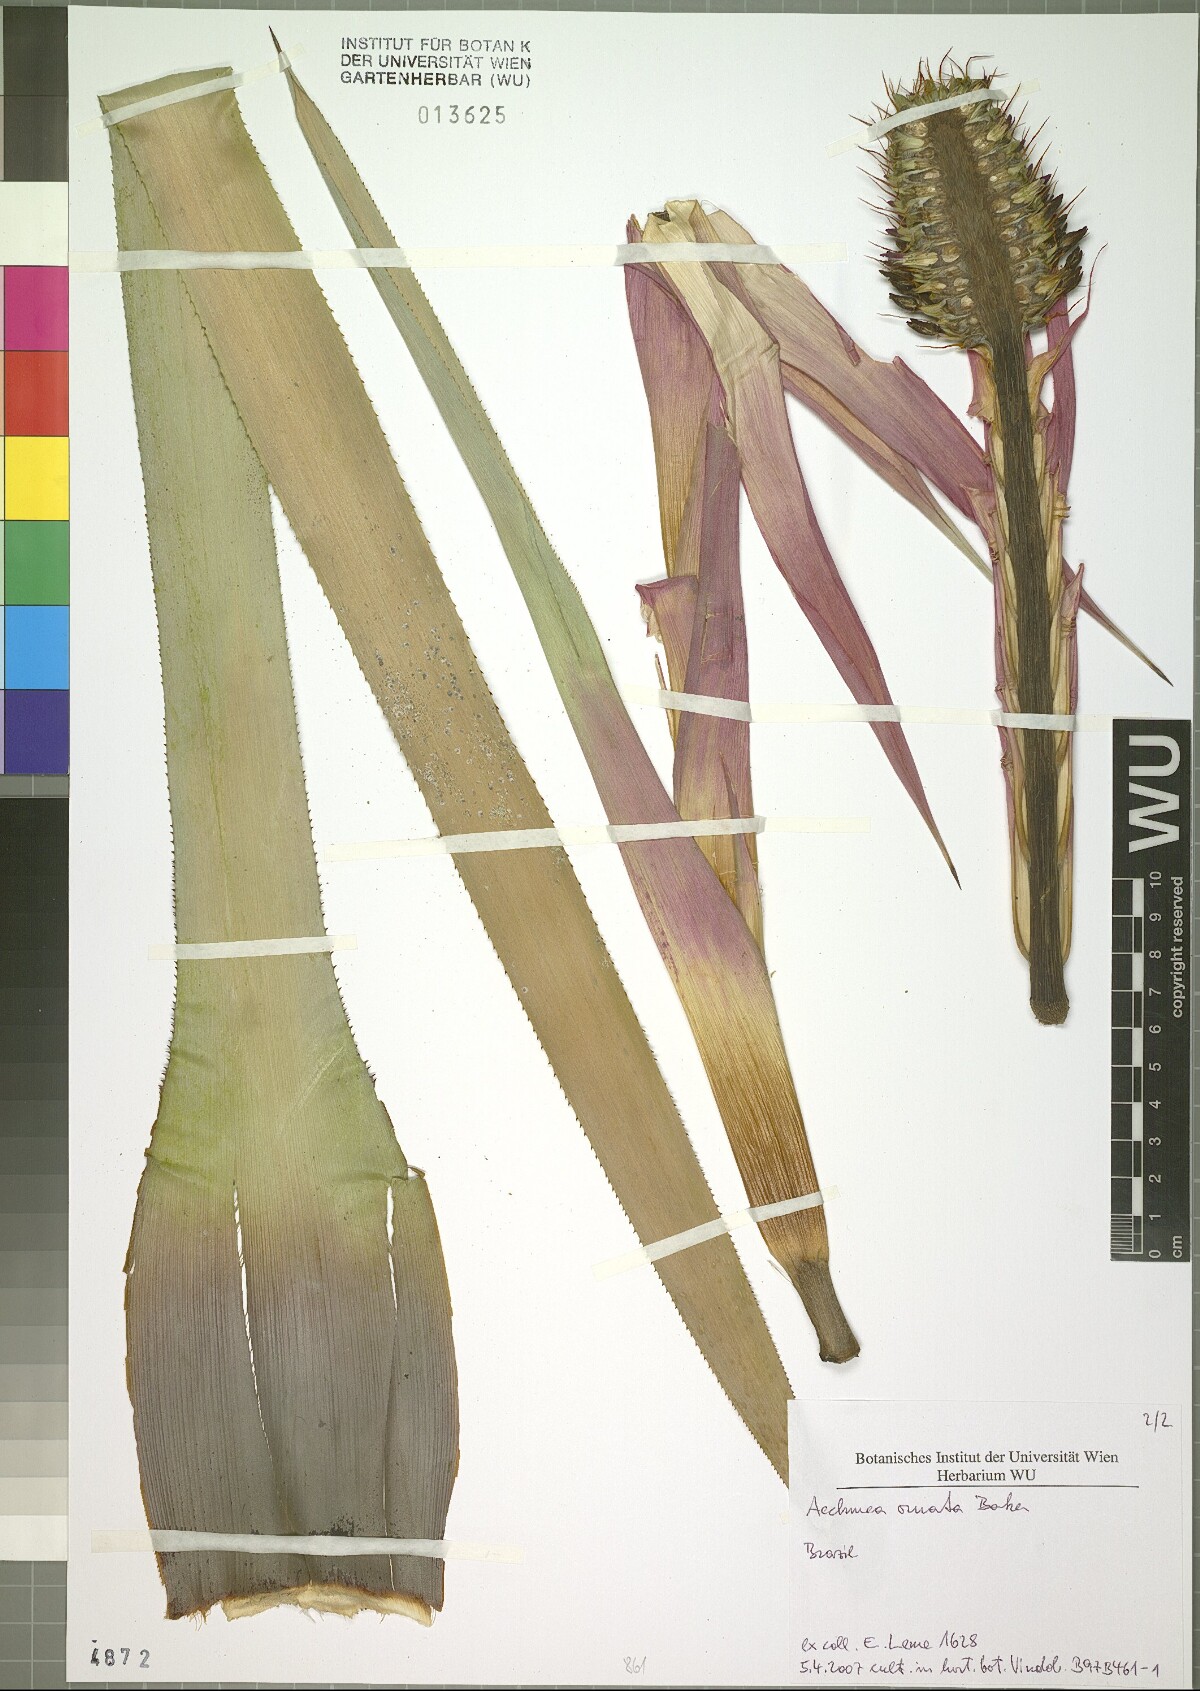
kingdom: Plantae
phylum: Tracheophyta
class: Liliopsida
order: Poales
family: Bromeliaceae
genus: Aechmea
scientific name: Aechmea ornata
